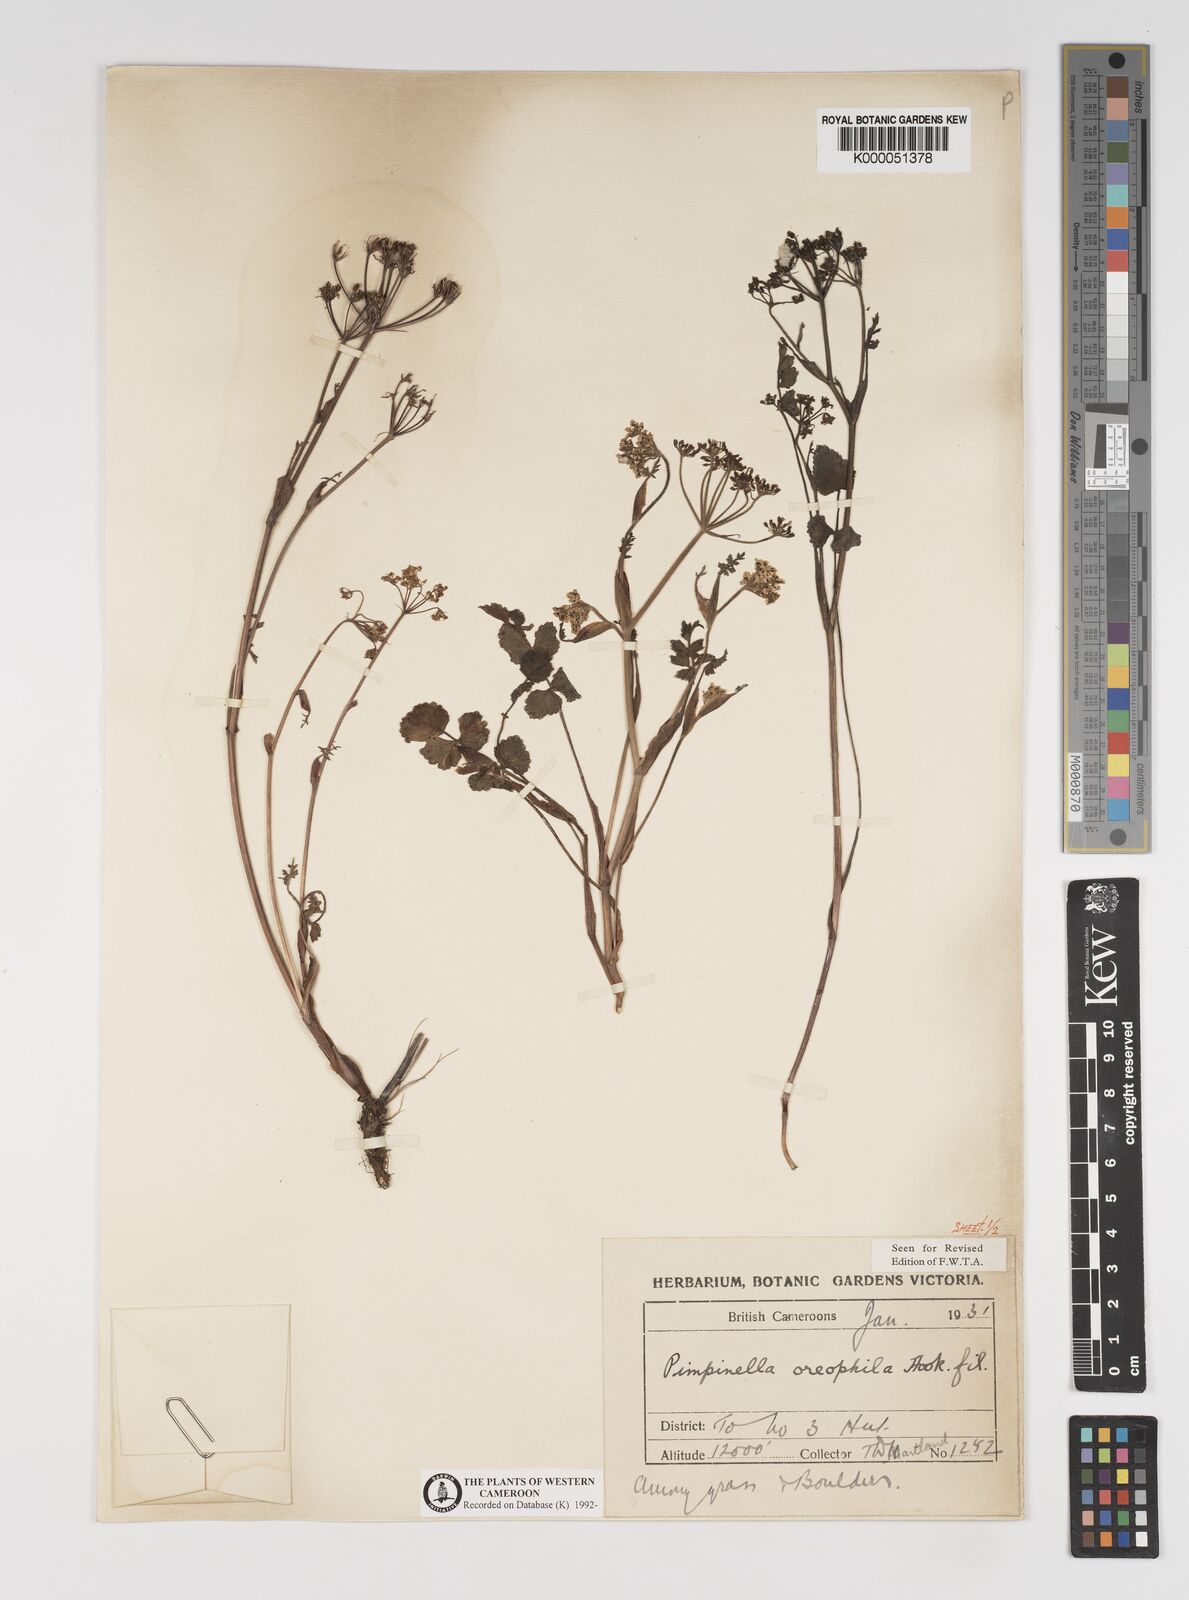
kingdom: Plantae
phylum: Tracheophyta
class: Magnoliopsida
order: Apiales
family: Apiaceae
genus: Pimpinella
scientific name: Pimpinella oreophila
